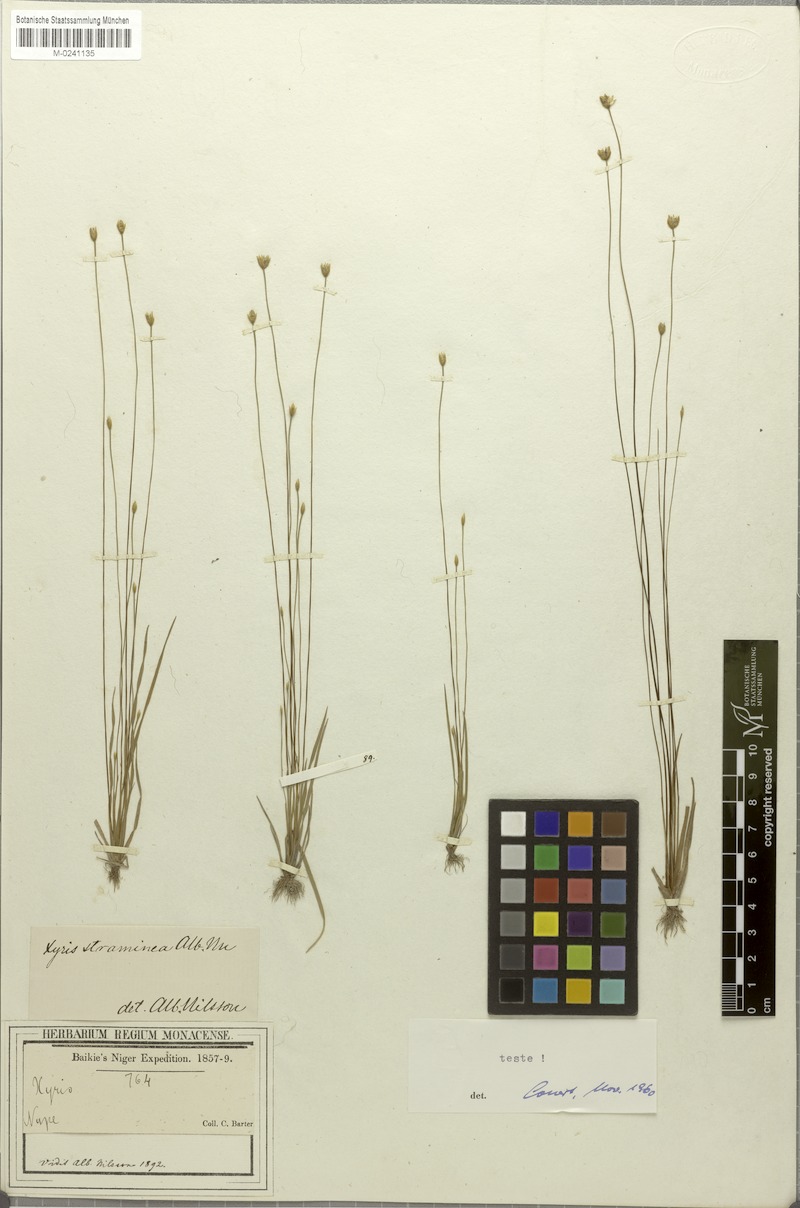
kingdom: Plantae
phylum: Tracheophyta
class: Liliopsida
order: Poales
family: Xyridaceae
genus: Xyris
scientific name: Xyris straminea
